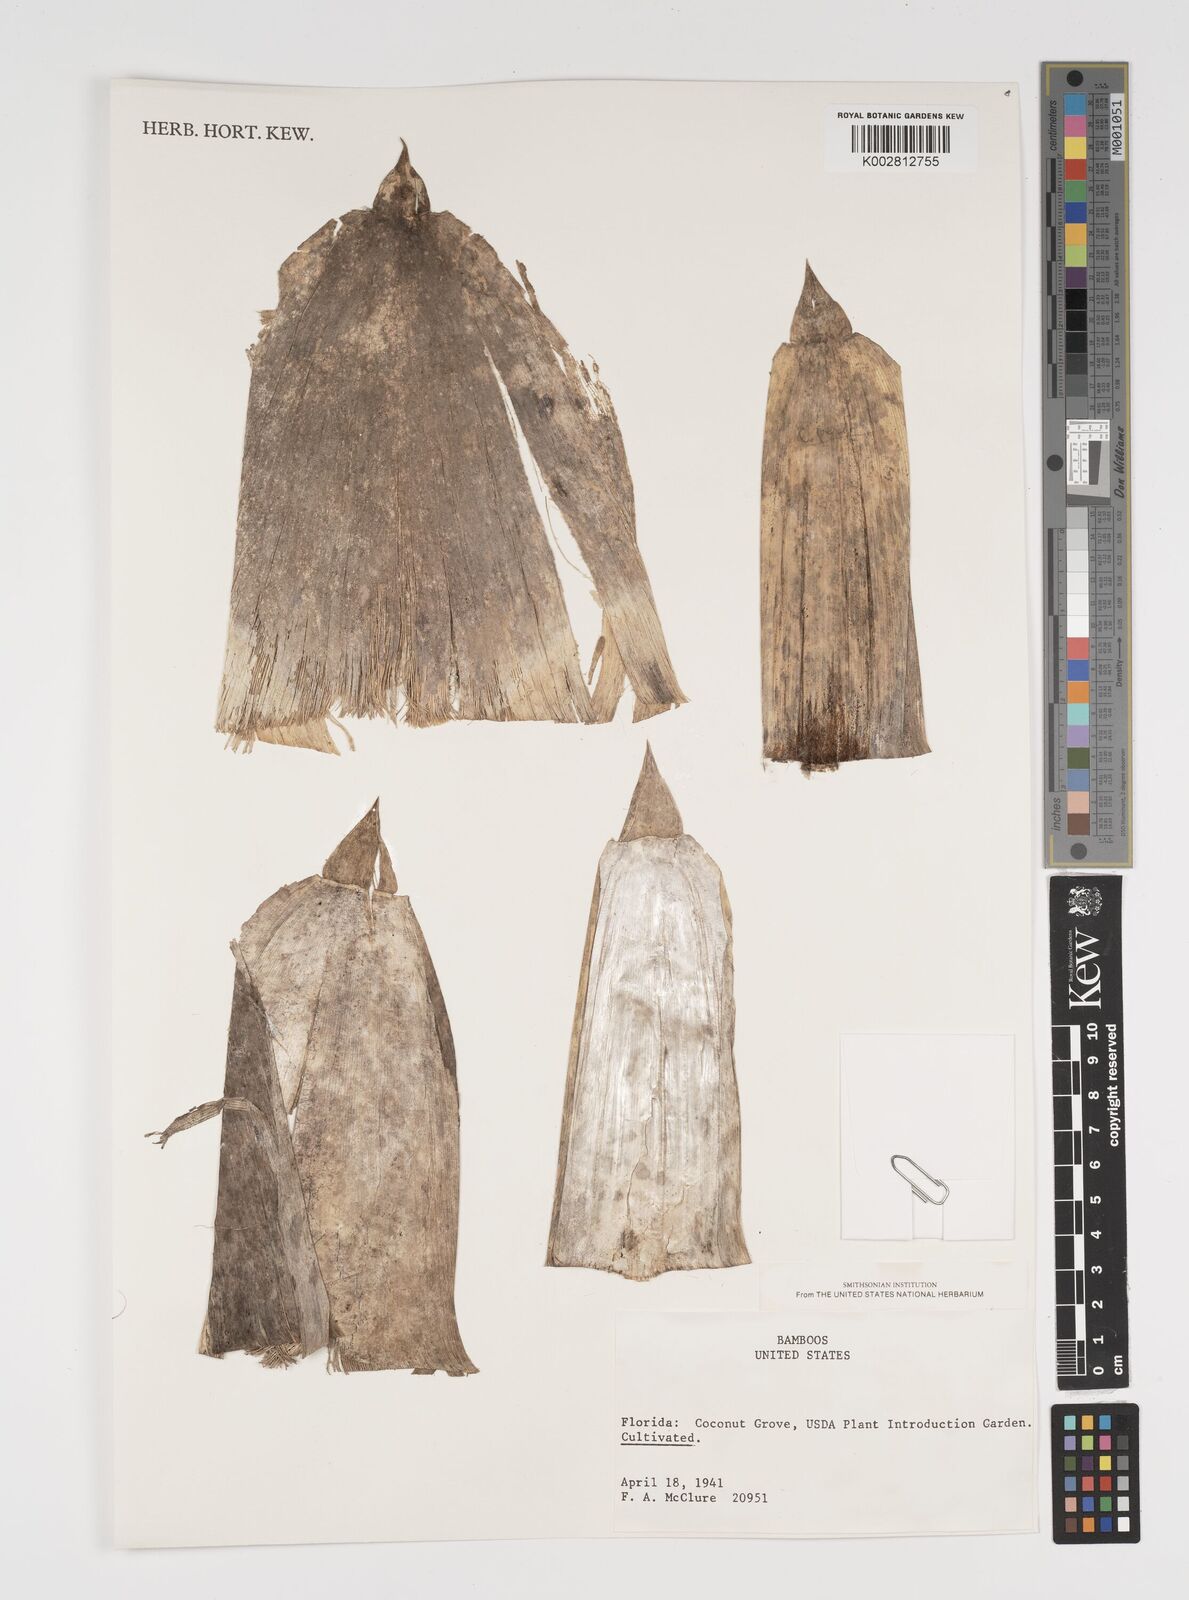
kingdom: Plantae
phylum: Tracheophyta
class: Liliopsida
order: Poales
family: Poaceae
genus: Arundinaria
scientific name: Arundinaria
